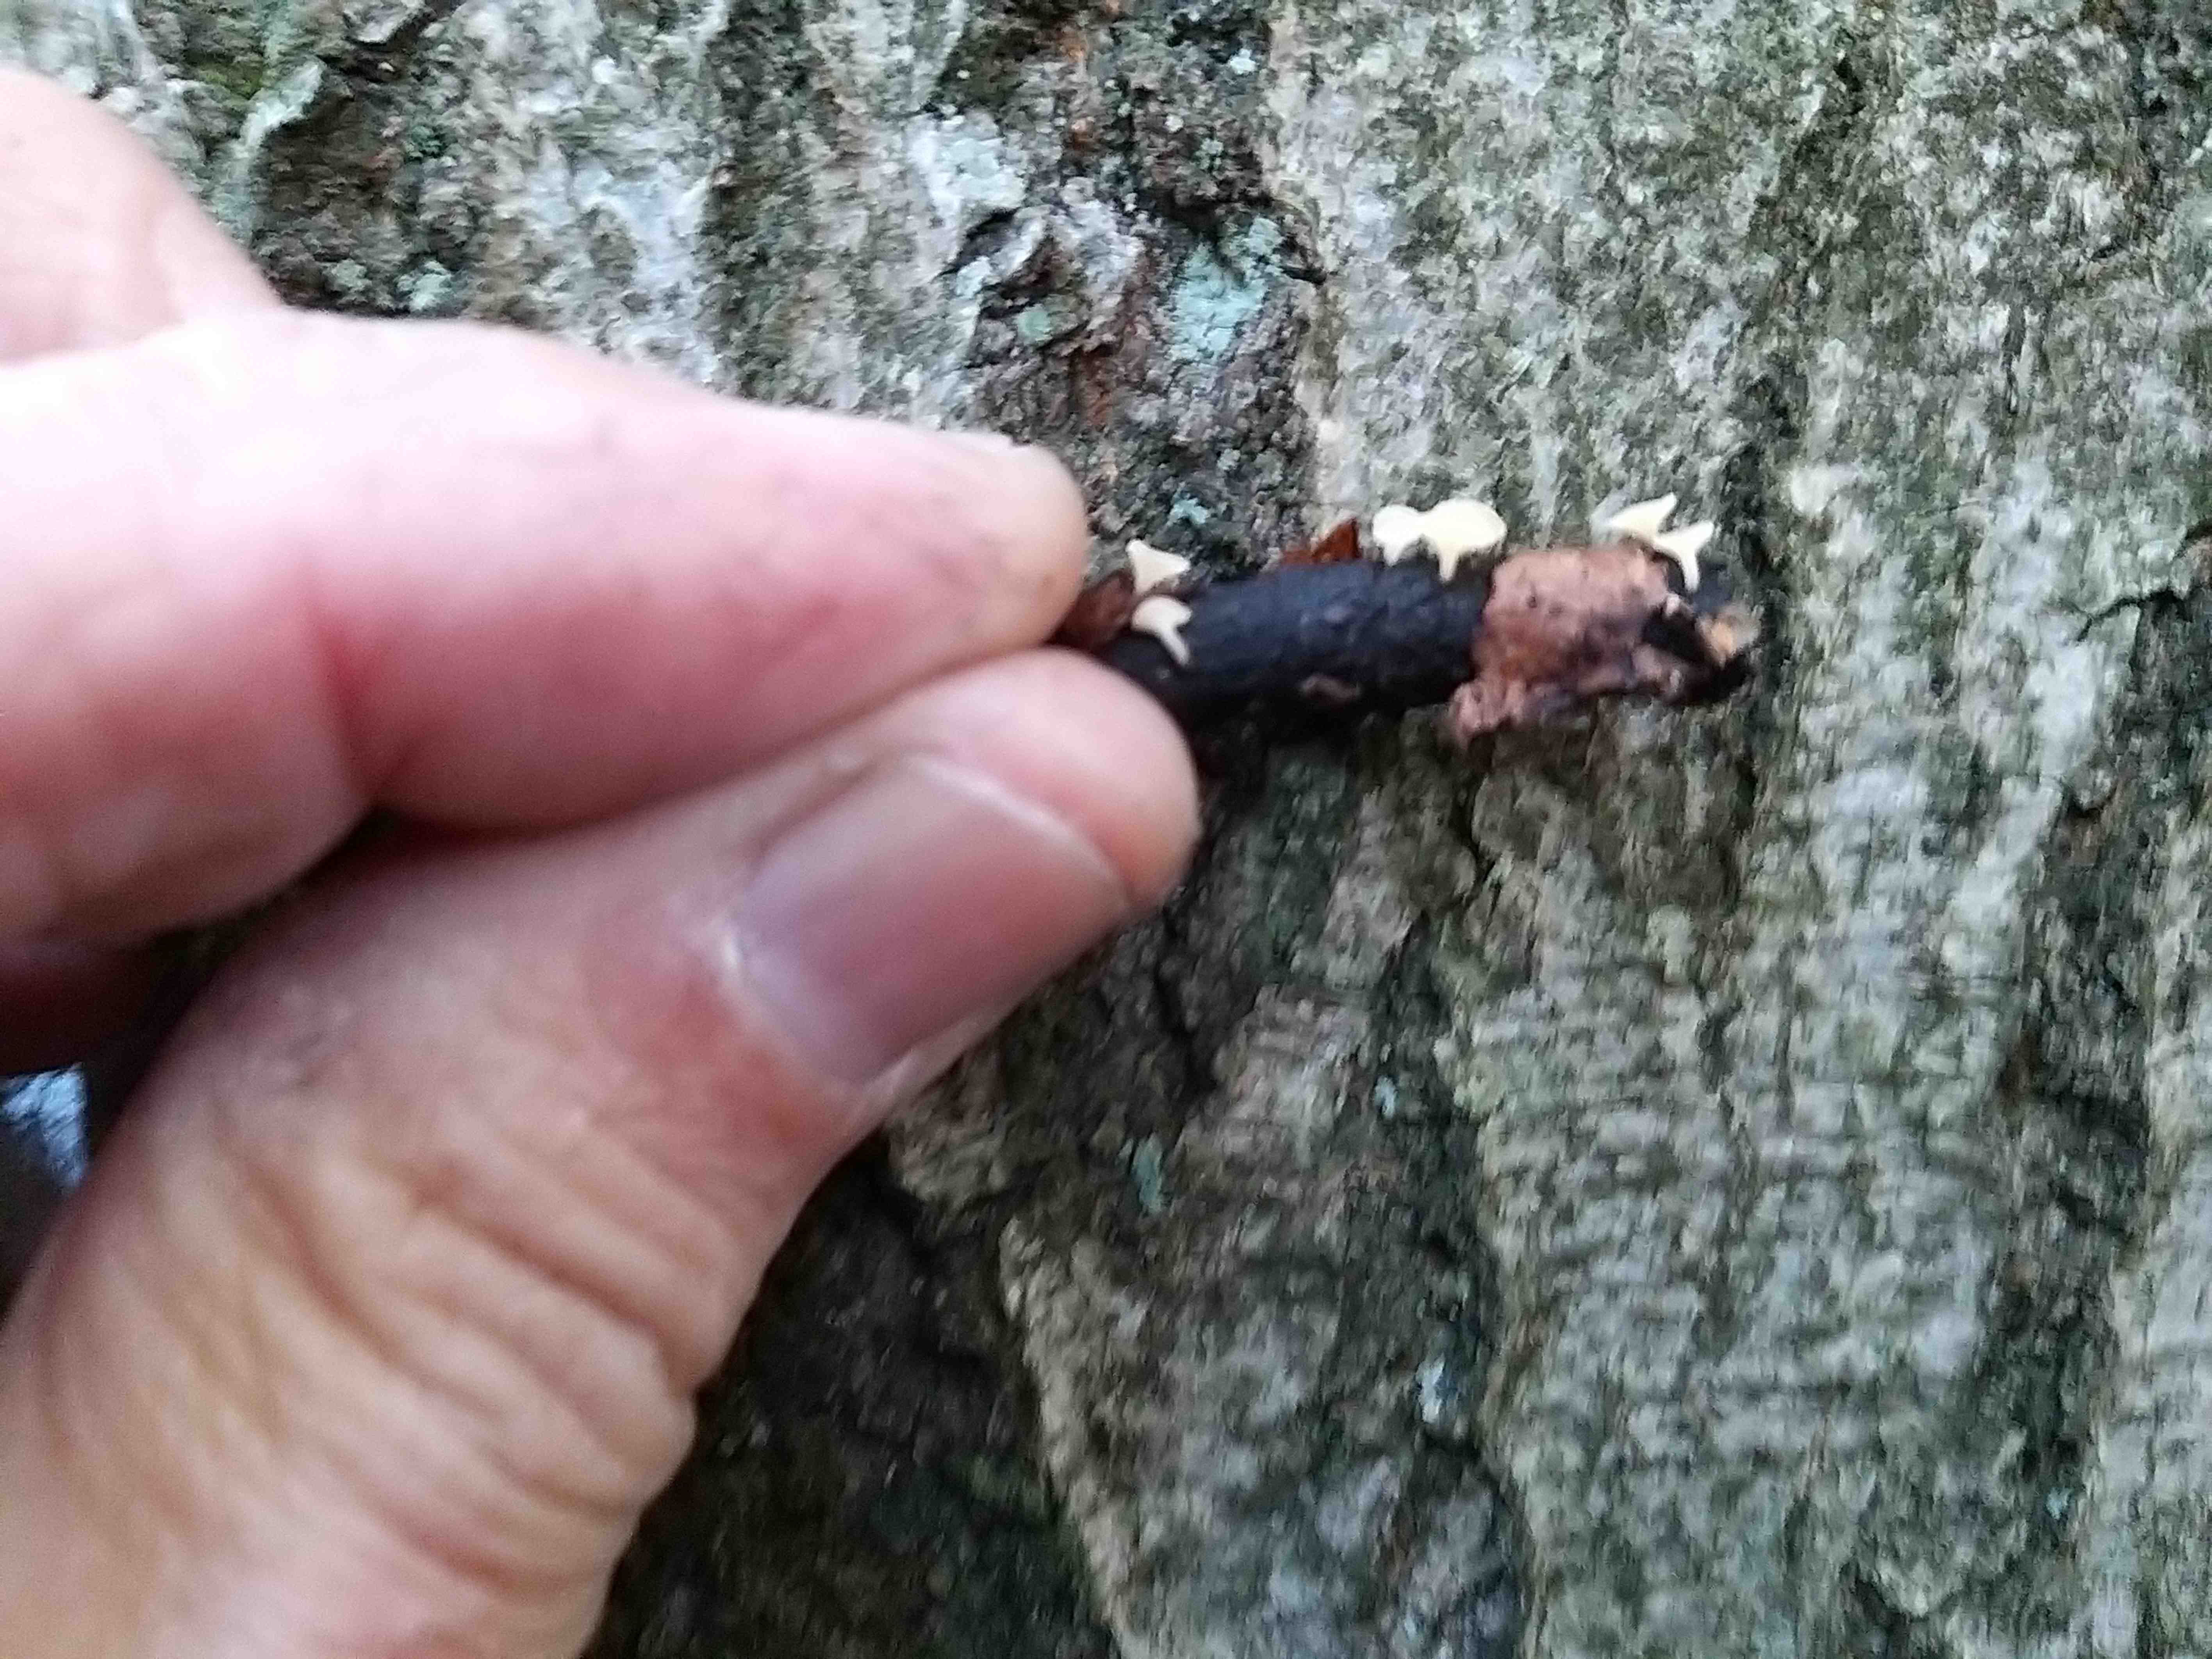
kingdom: Fungi
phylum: Ascomycota
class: Leotiomycetes
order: Helotiales
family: Helotiaceae
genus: Hymenoscyphus
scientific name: Hymenoscyphus serotinus
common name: krumsporet stilkskive
